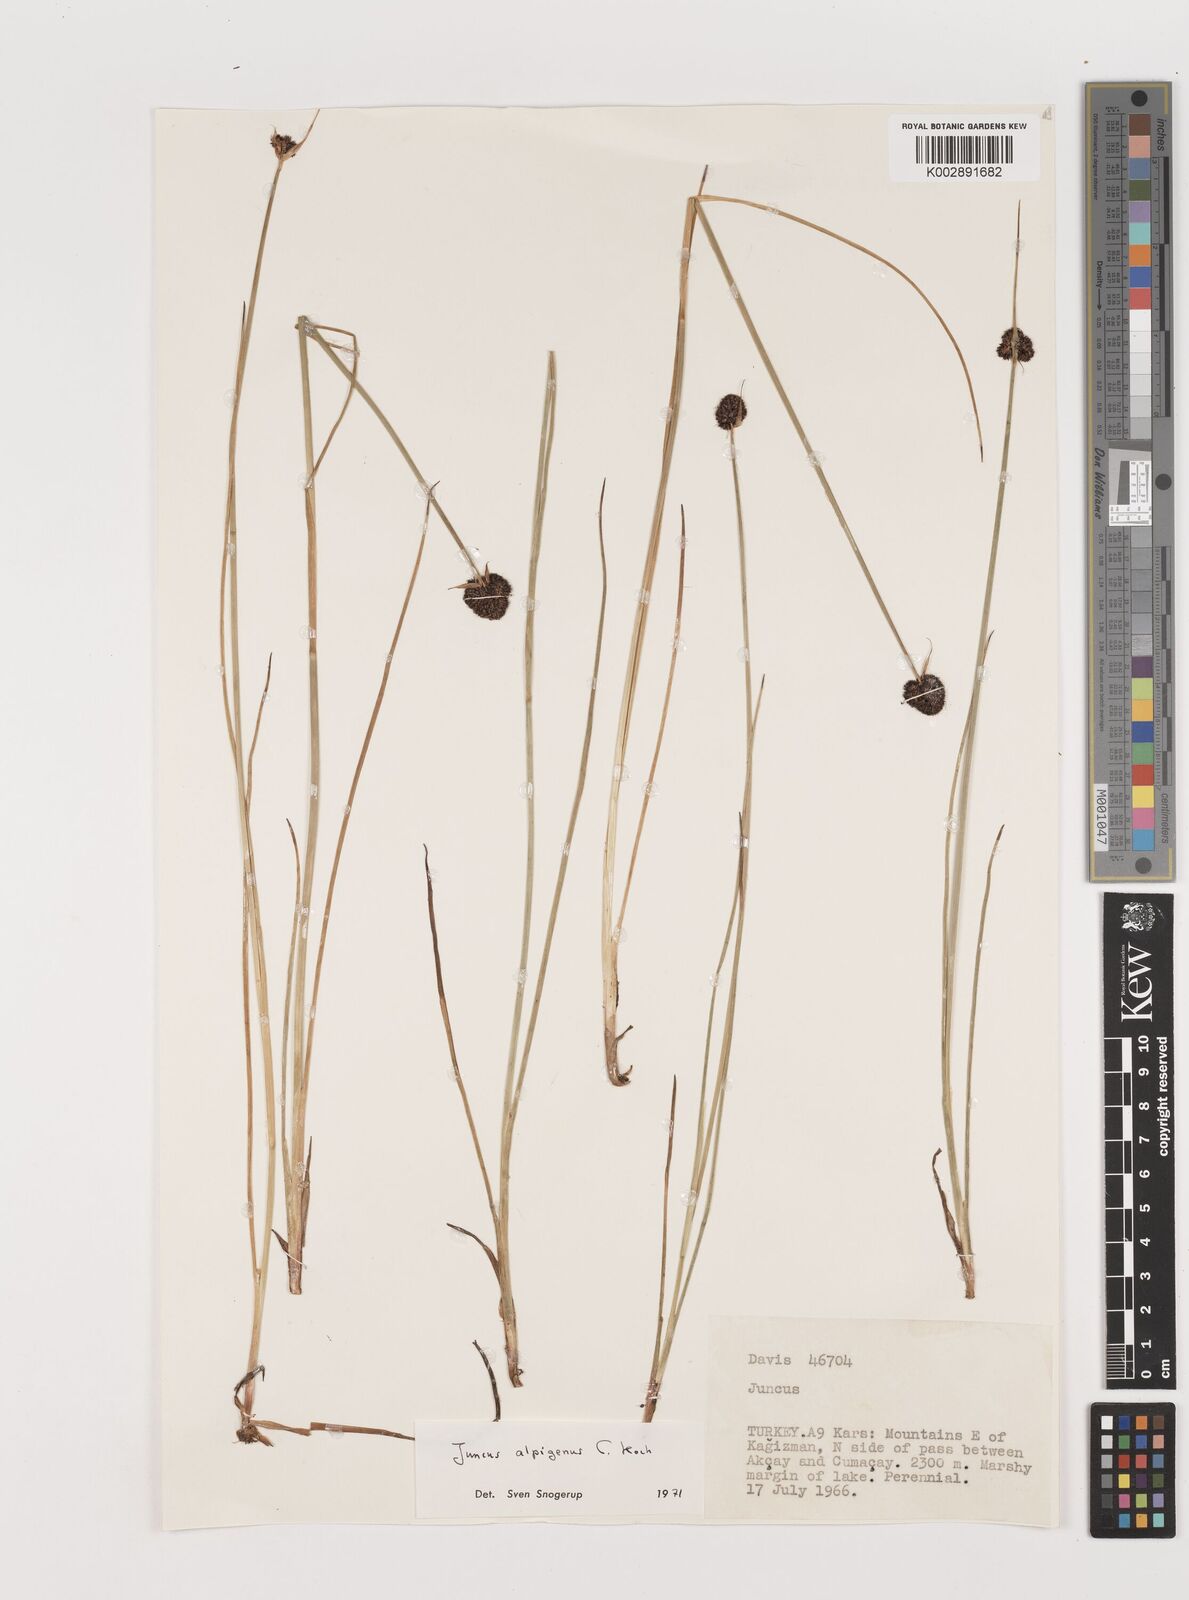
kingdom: Plantae
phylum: Tracheophyta
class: Liliopsida
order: Poales
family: Juncaceae
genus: Juncus
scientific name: Juncus alpigenus
